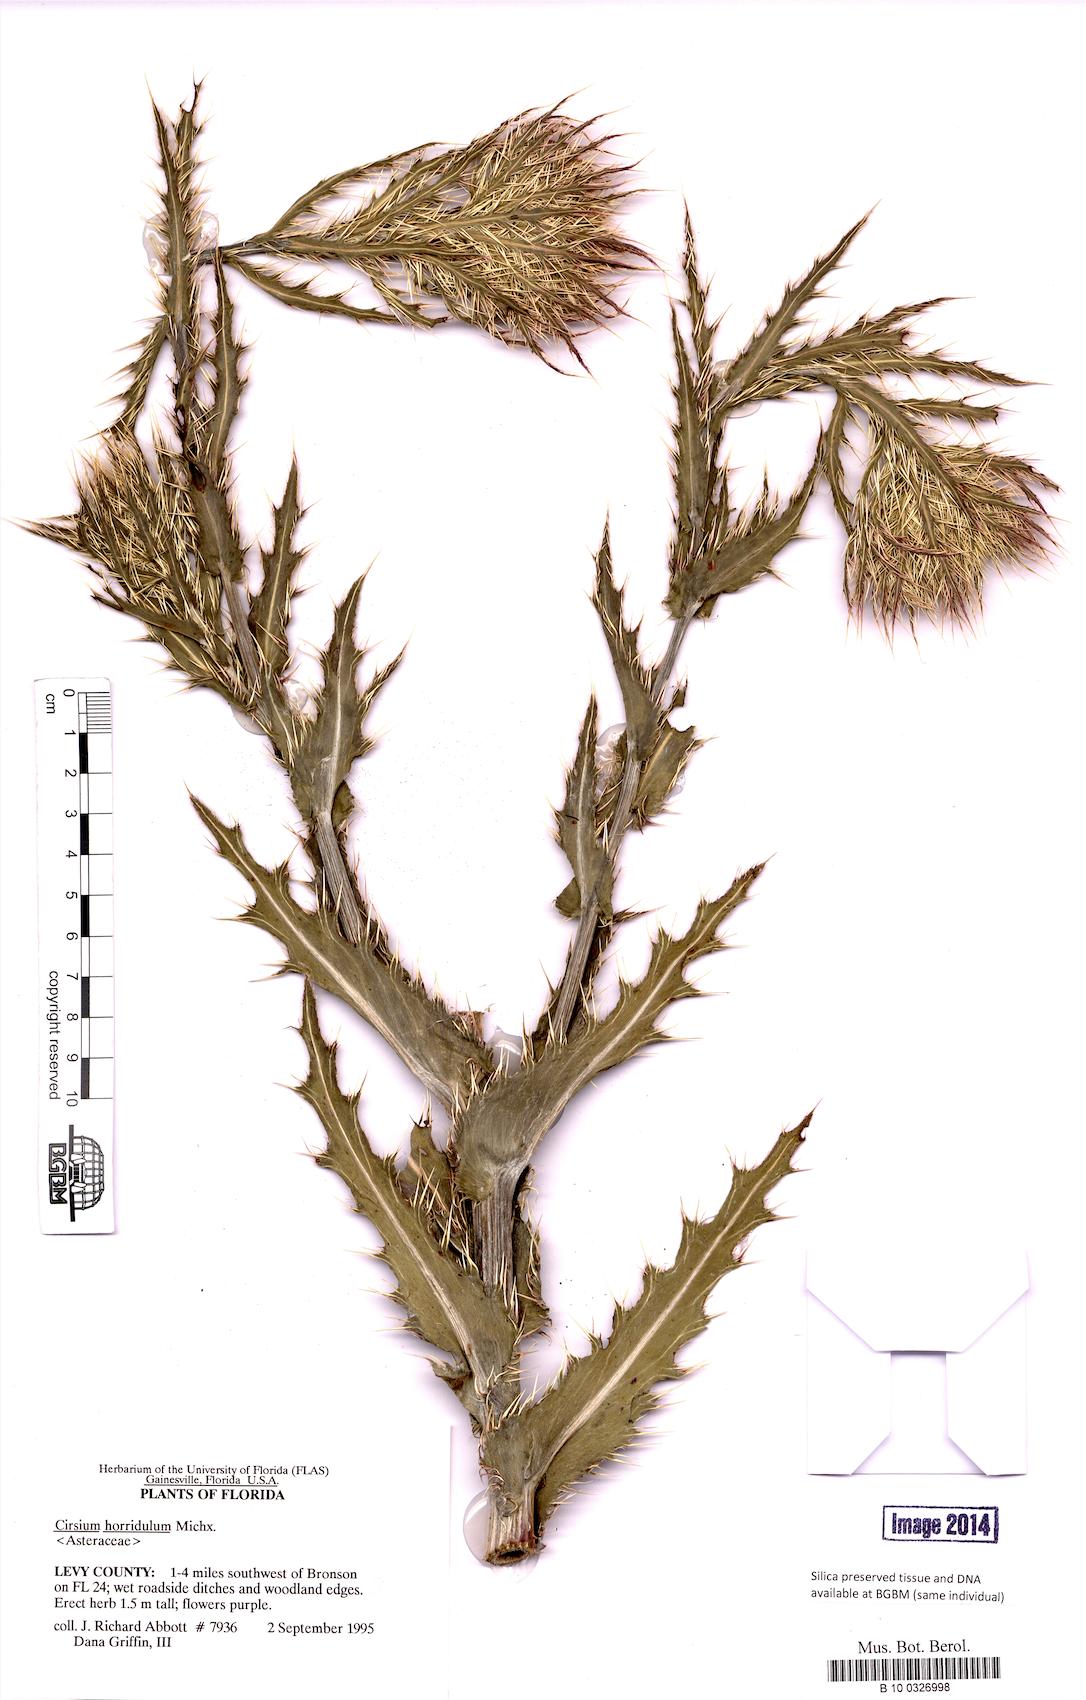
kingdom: Plantae
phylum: Tracheophyta
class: Magnoliopsida
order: Asterales
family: Asteraceae
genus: Cirsium
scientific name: Cirsium horridulum
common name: Bristly thistle
